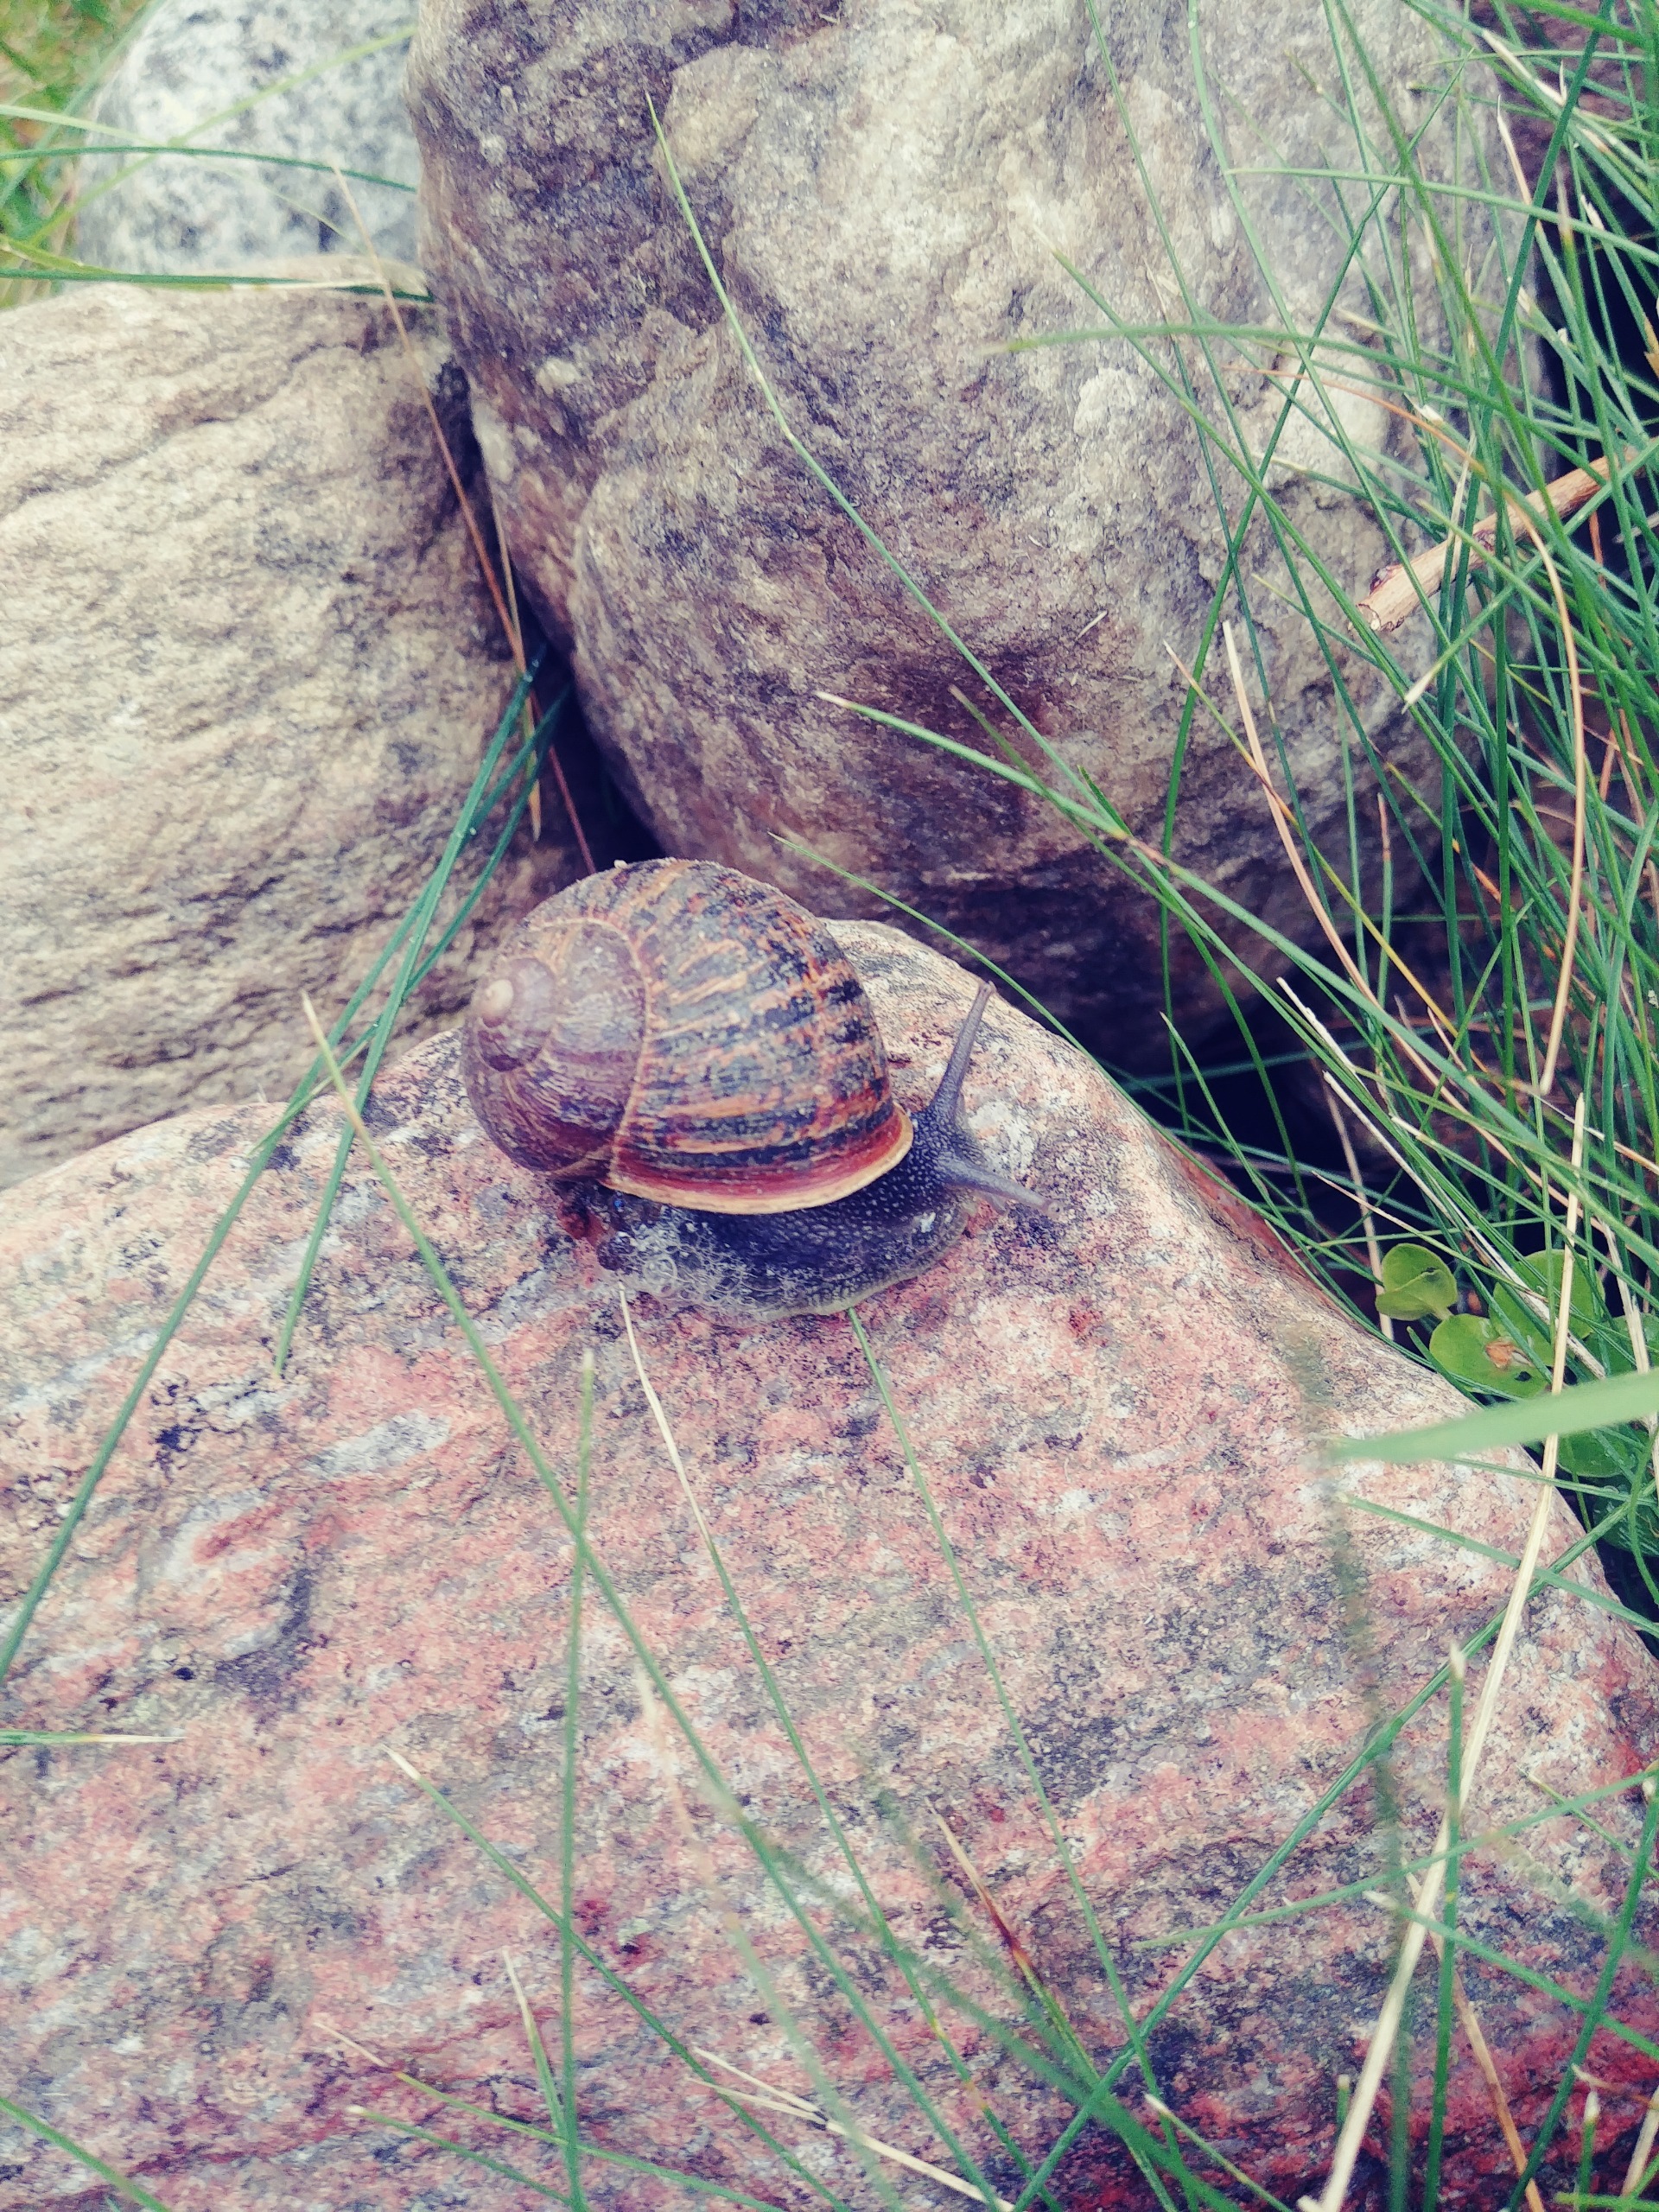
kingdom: Animalia
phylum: Mollusca
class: Gastropoda
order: Stylommatophora
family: Helicidae
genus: Cornu
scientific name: Cornu aspersum
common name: Plettet voldsnegl
